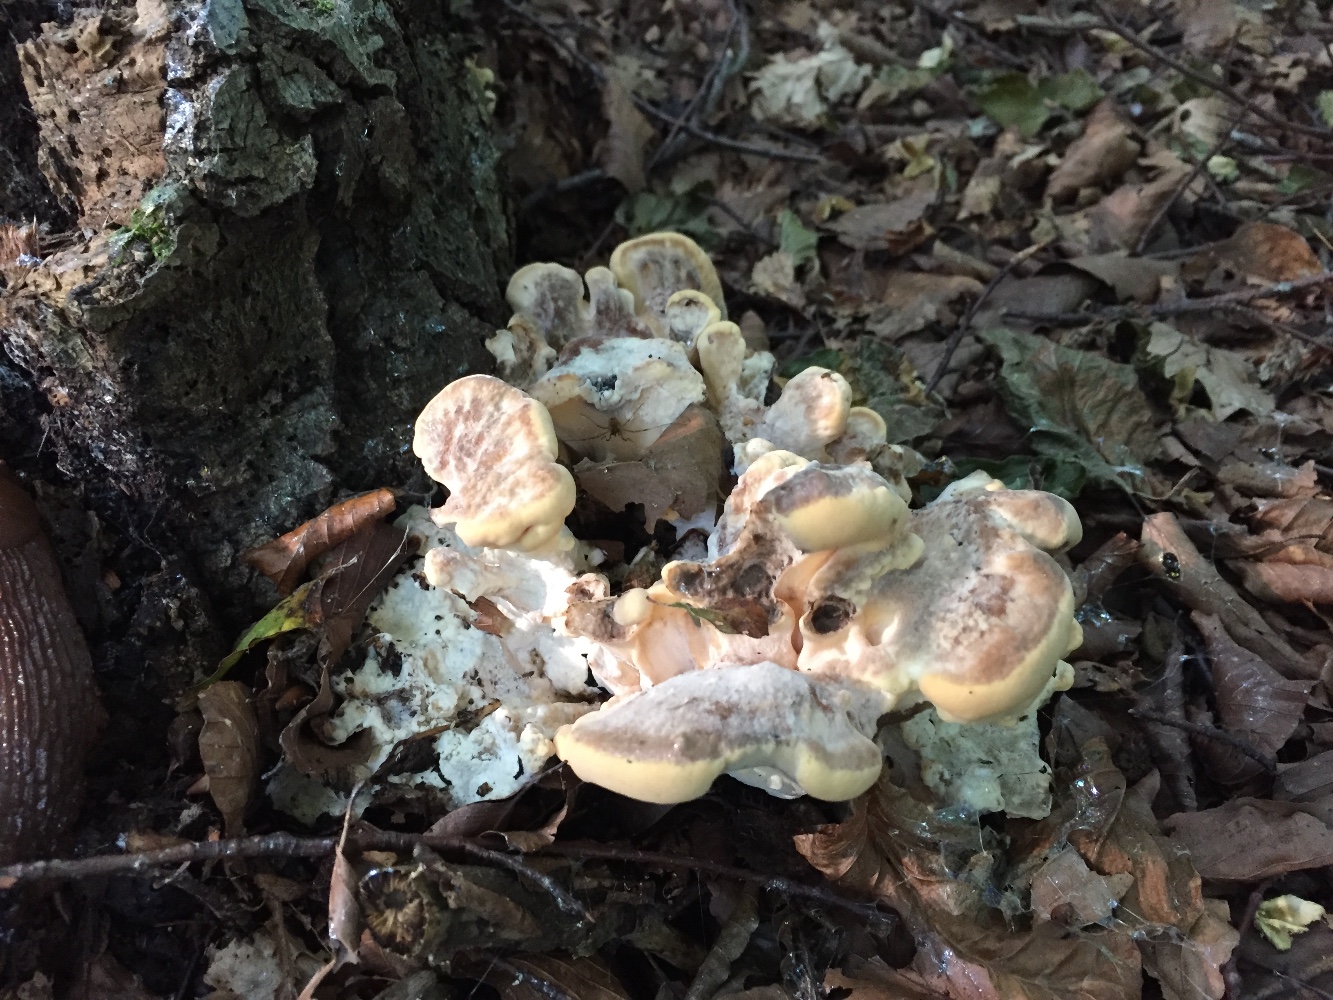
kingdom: Fungi
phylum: Basidiomycota
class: Agaricomycetes
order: Polyporales
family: Meripilaceae
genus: Meripilus
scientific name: Meripilus giganteus
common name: kæmpeporesvamp
